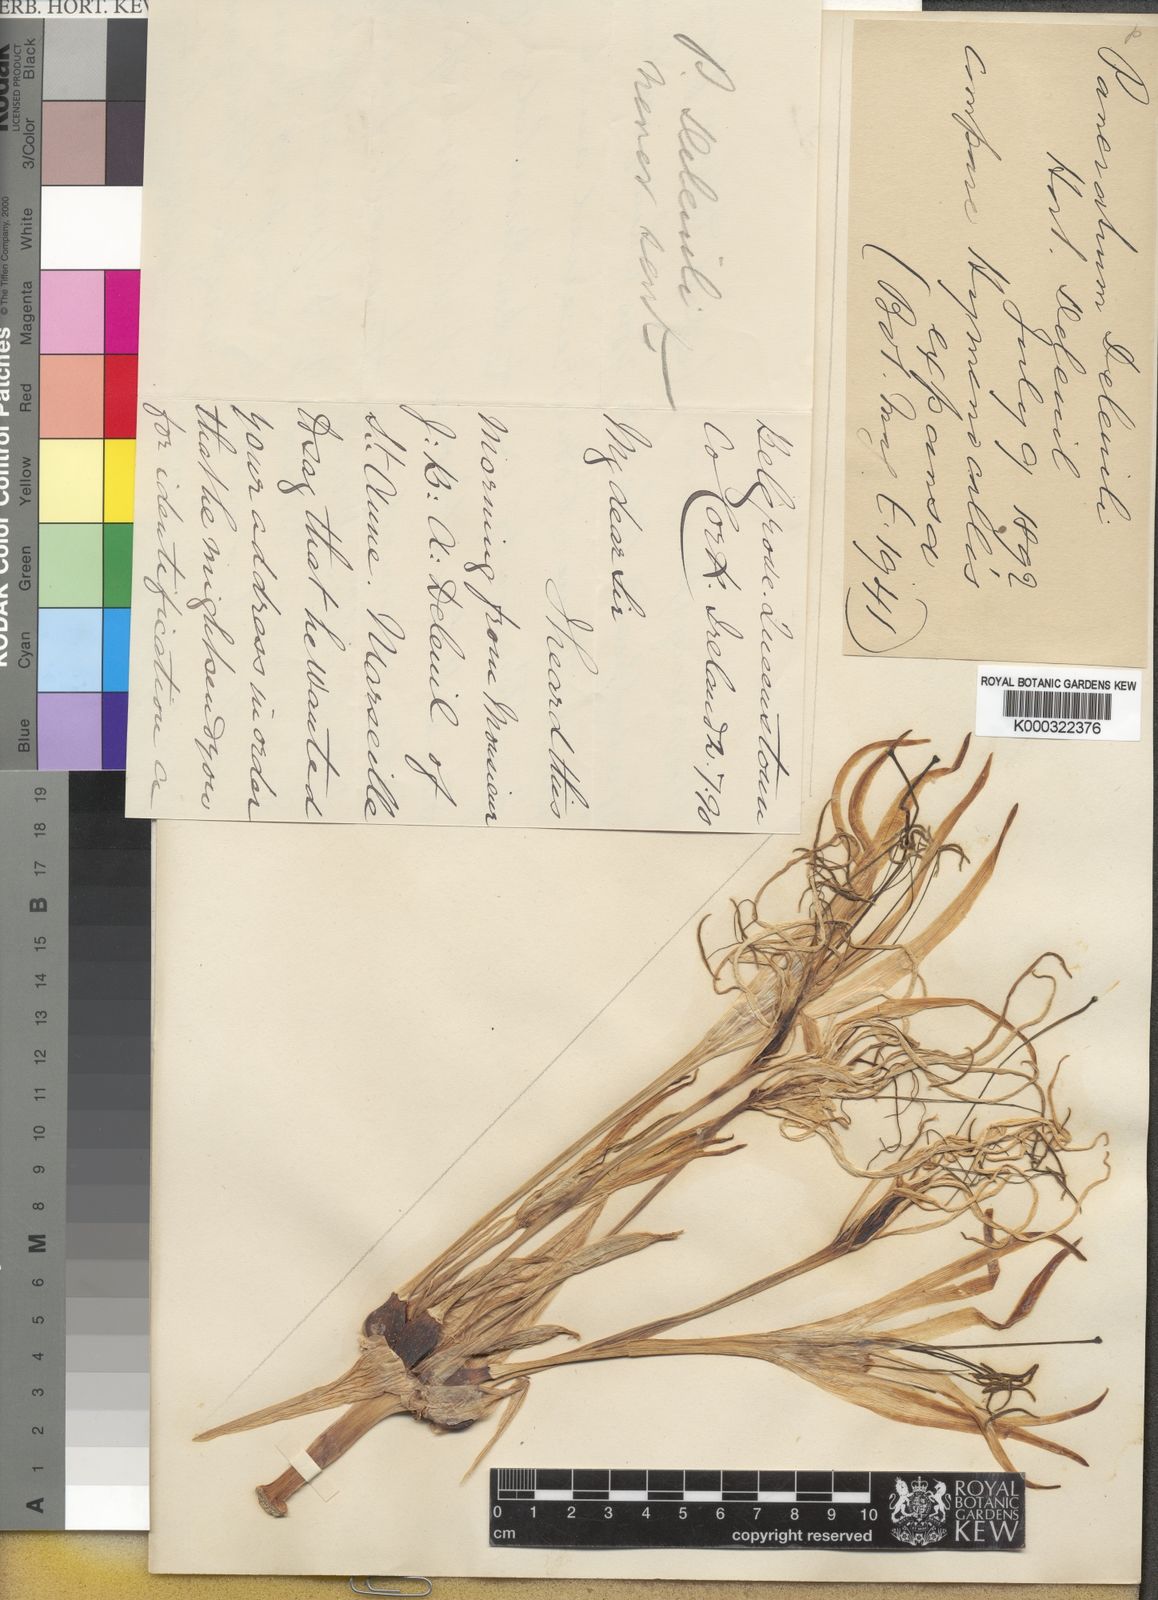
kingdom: Plantae
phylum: Tracheophyta
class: Liliopsida
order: Asparagales
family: Amaryllidaceae
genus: Hymenocallis
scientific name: Hymenocallis latifolia
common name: Cayman islands spider-lily
